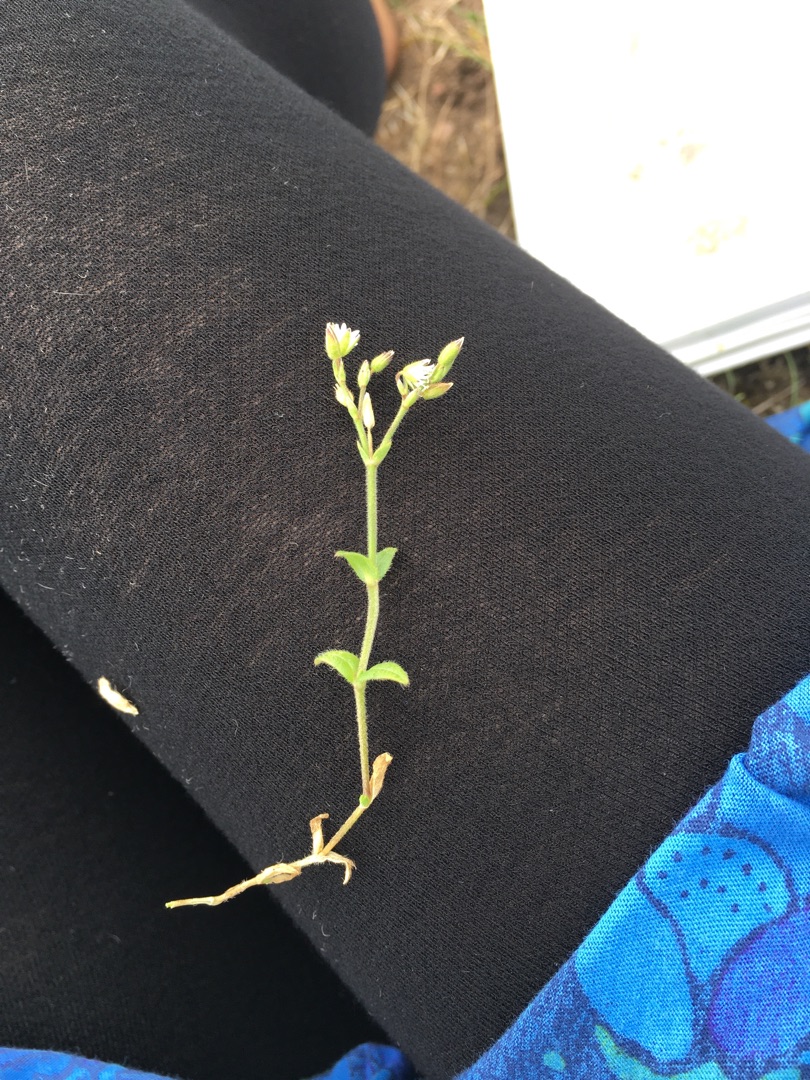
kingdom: Plantae
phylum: Tracheophyta
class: Magnoliopsida
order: Caryophyllales
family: Caryophyllaceae
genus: Cerastium
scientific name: Cerastium fontanum
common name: Almindelig hønsetarm
